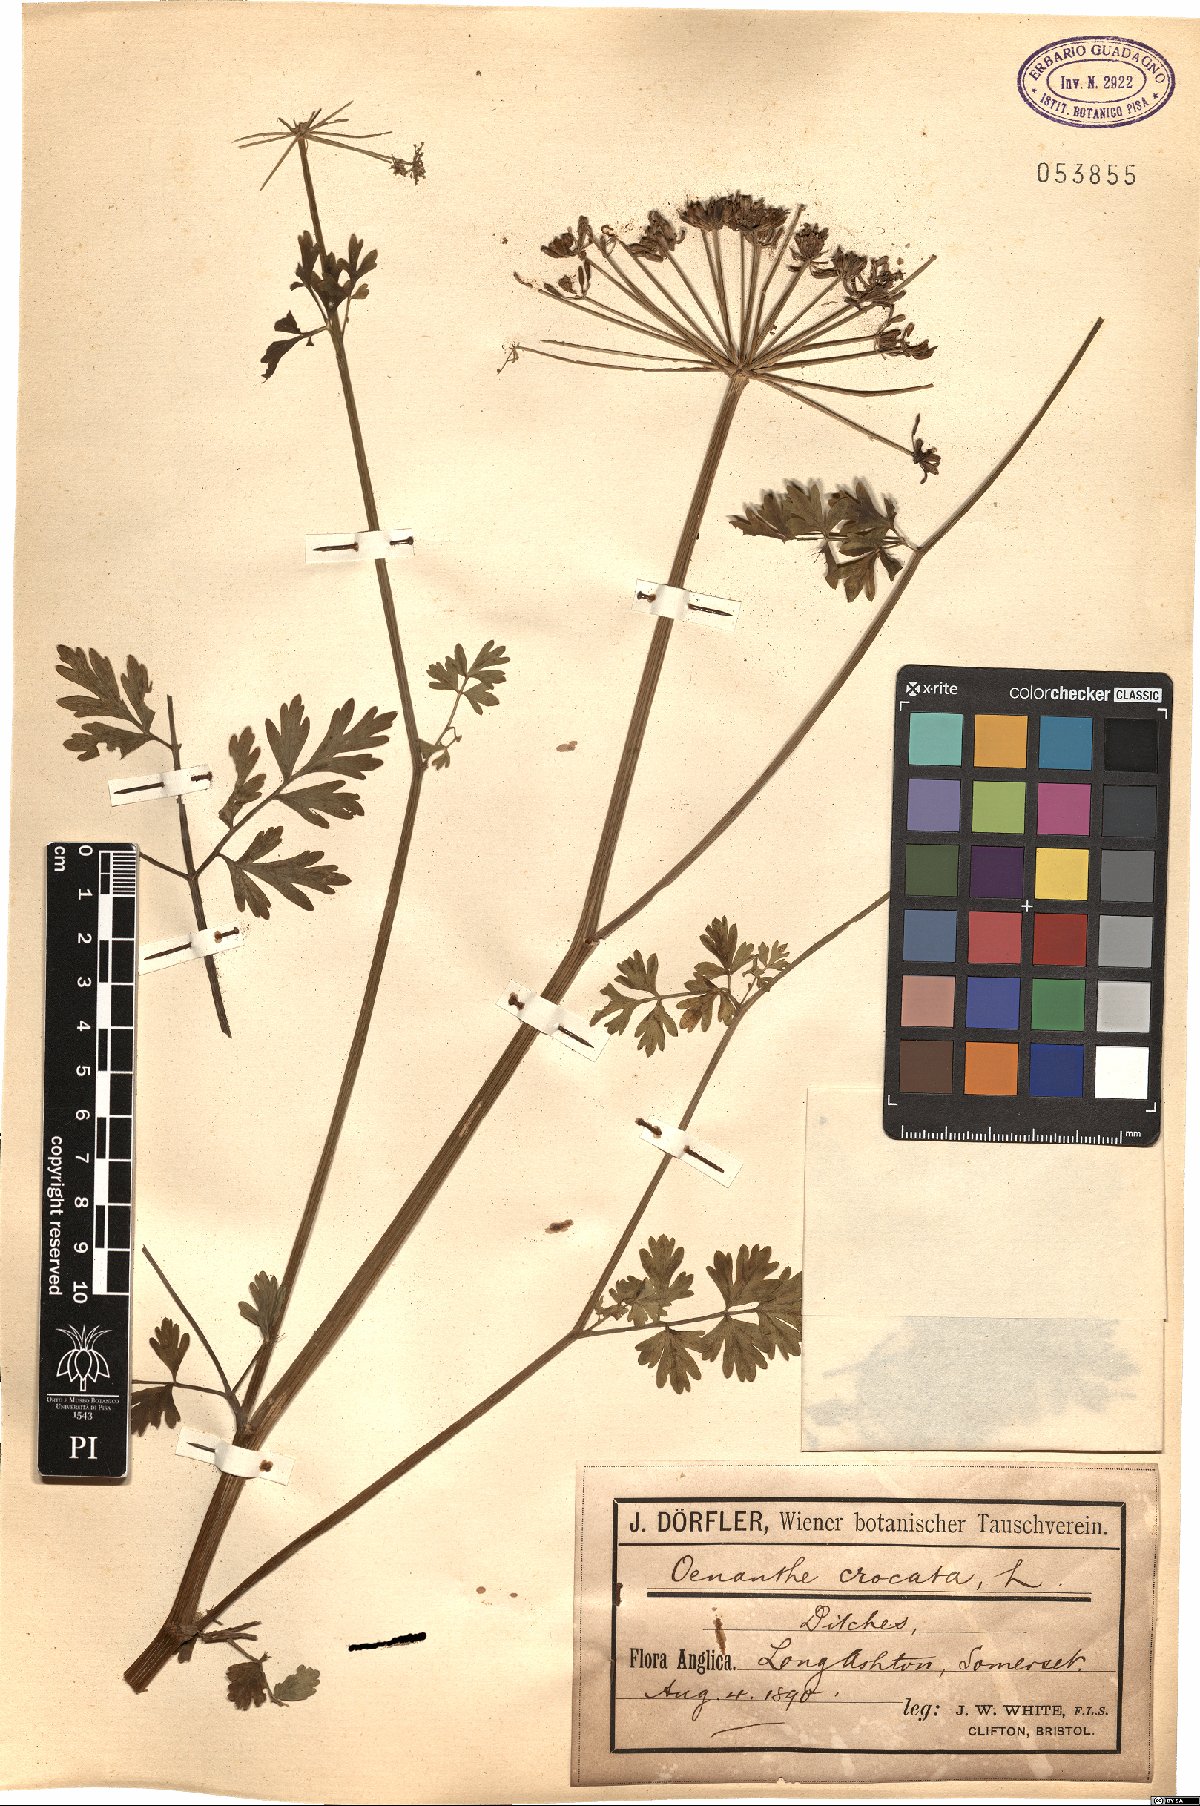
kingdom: Plantae
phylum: Tracheophyta
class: Magnoliopsida
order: Apiales
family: Apiaceae
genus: Oenanthe
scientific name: Oenanthe crocata
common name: Hemlock water-dropwort
